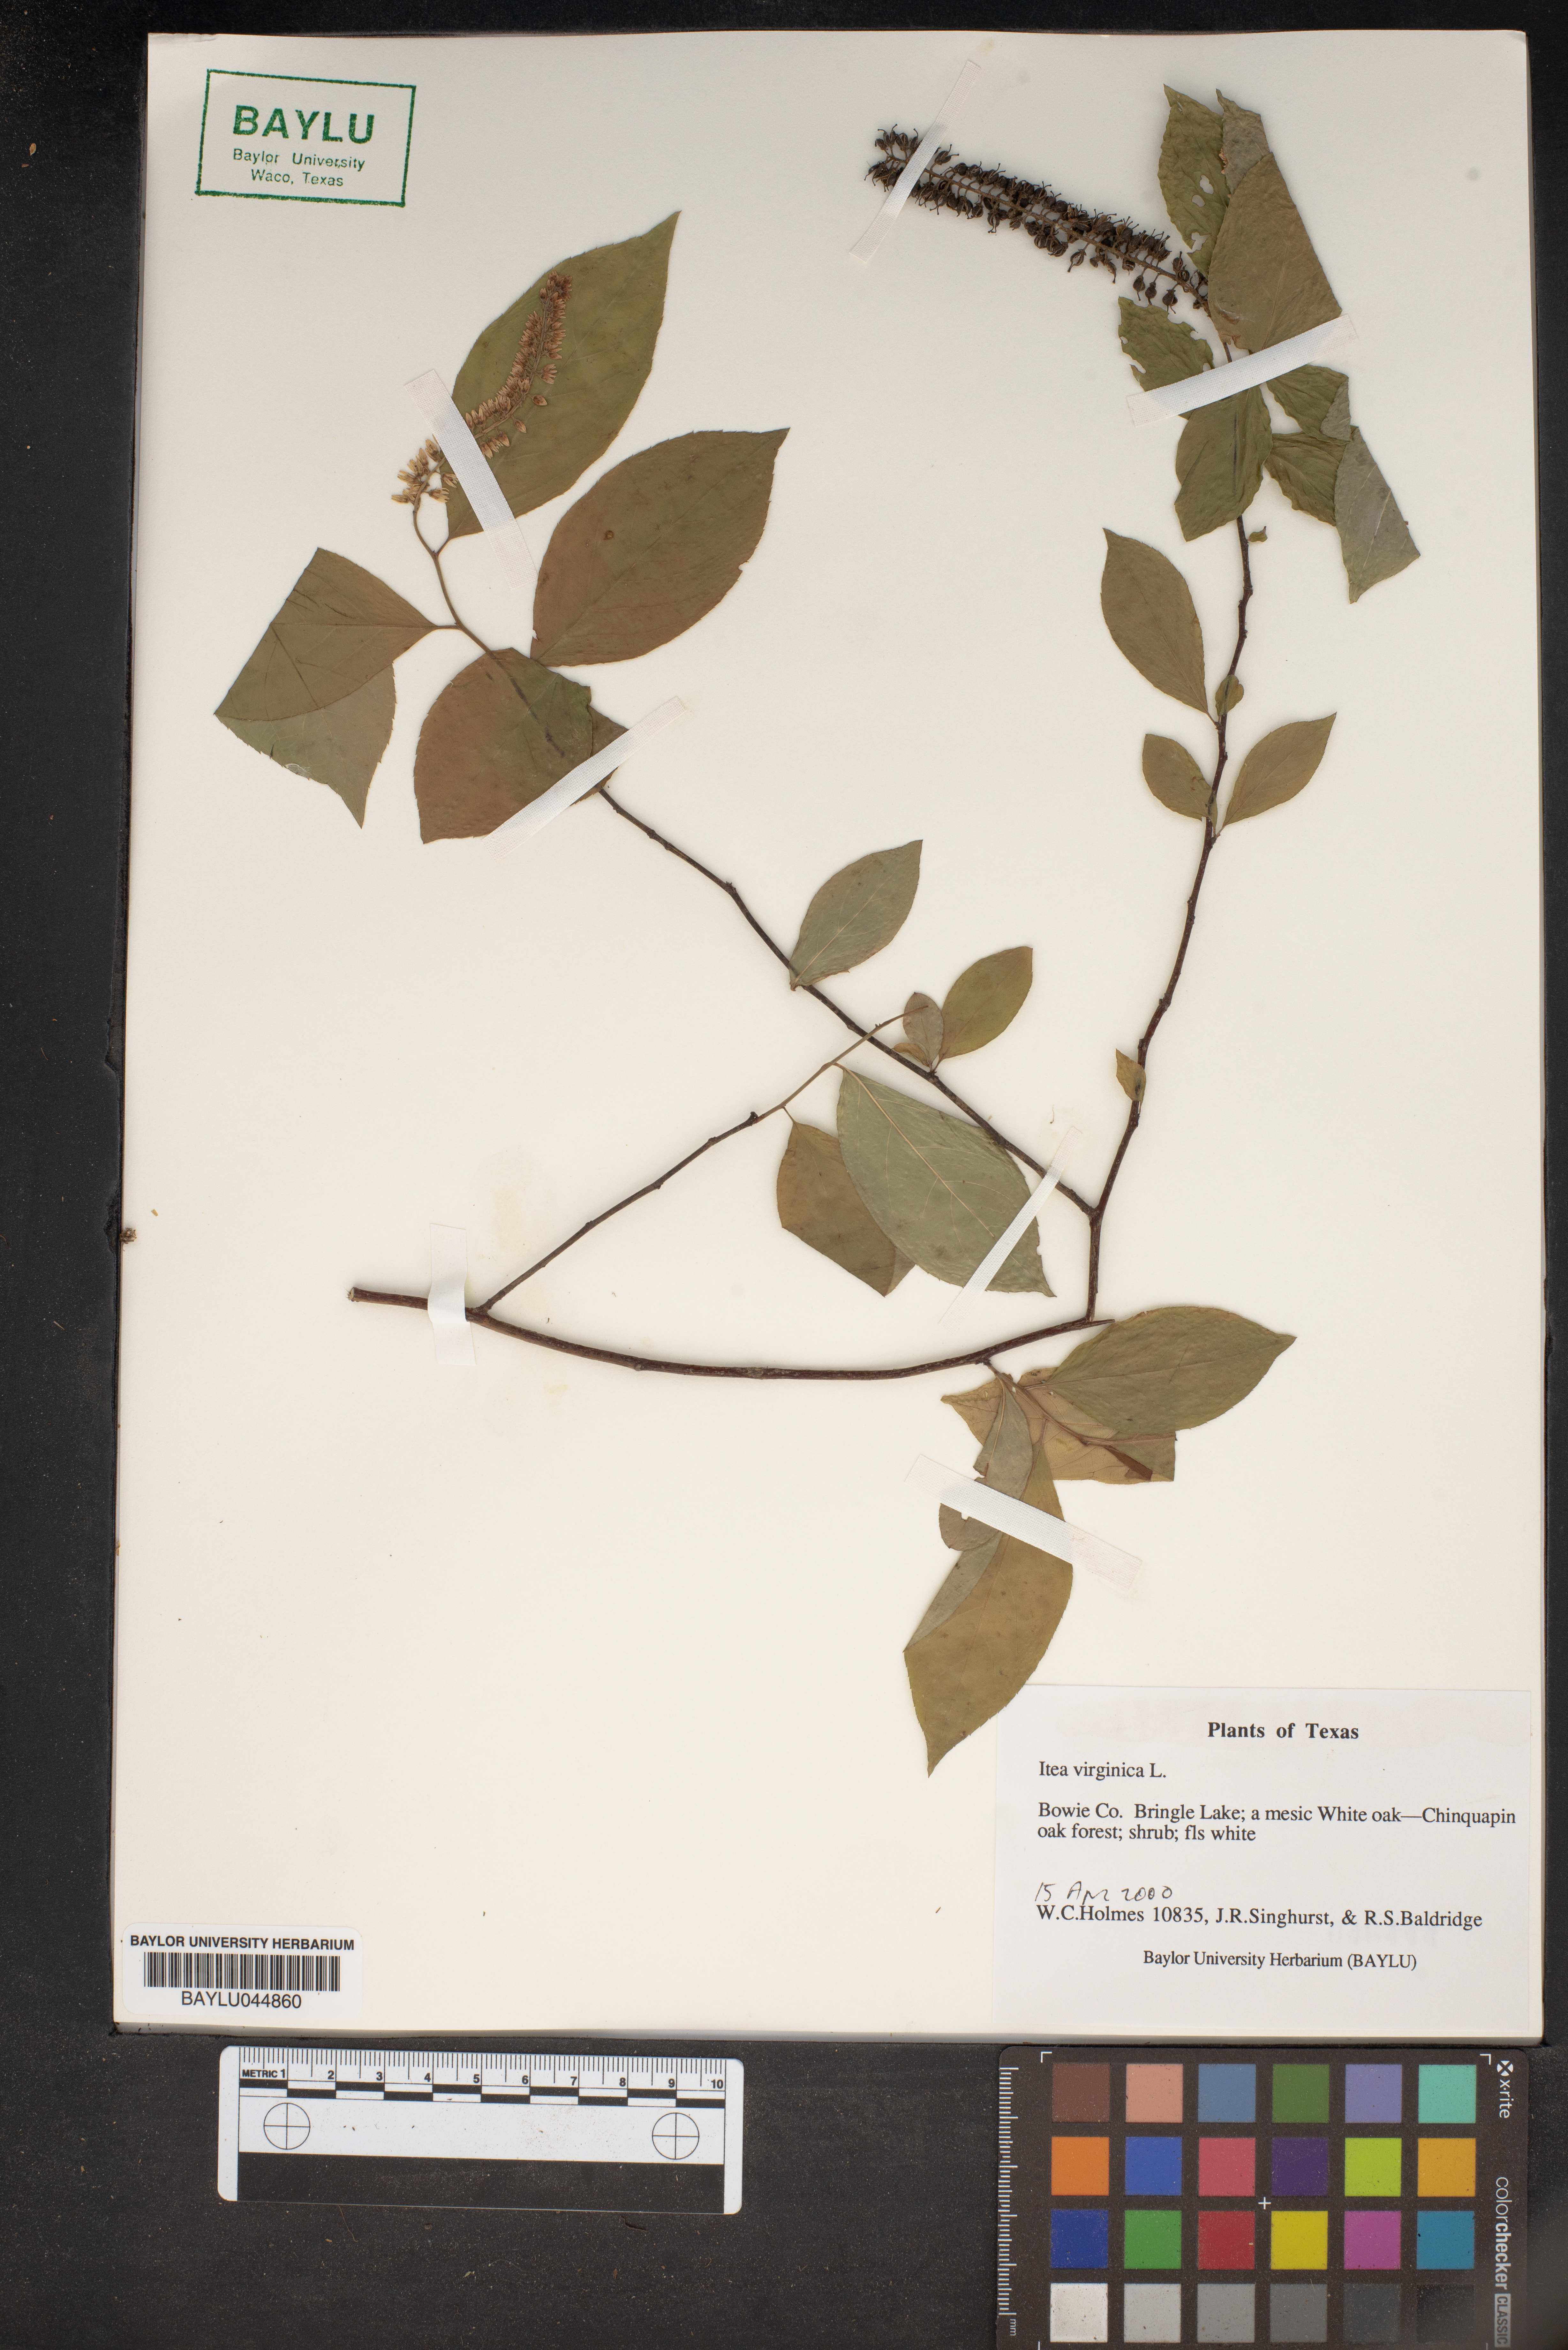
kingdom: Plantae
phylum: Tracheophyta
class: Magnoliopsida
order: Saxifragales
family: Iteaceae
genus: Itea
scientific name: Itea virginica
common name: Sweetspire
